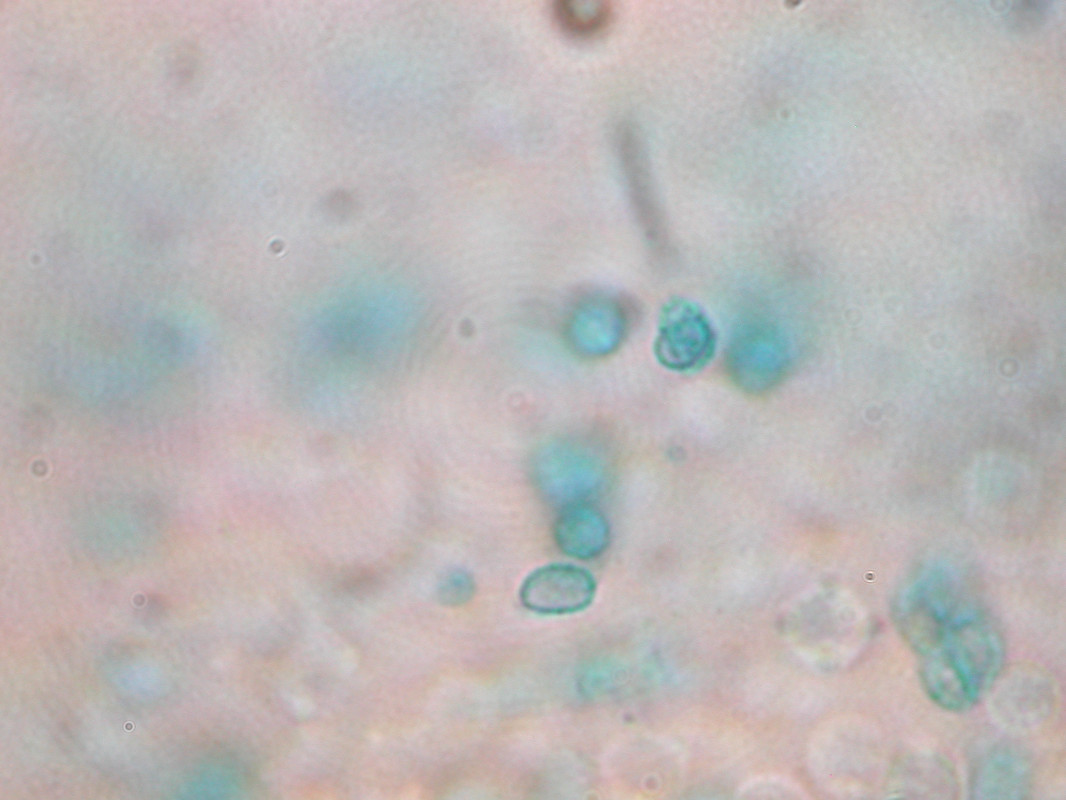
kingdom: Fungi
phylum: Basidiomycota
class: Agaricomycetes
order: Gomphales
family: Gomphaceae
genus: Phaeoclavulina
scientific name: Phaeoclavulina corrugata
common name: peber-koralsvamp
